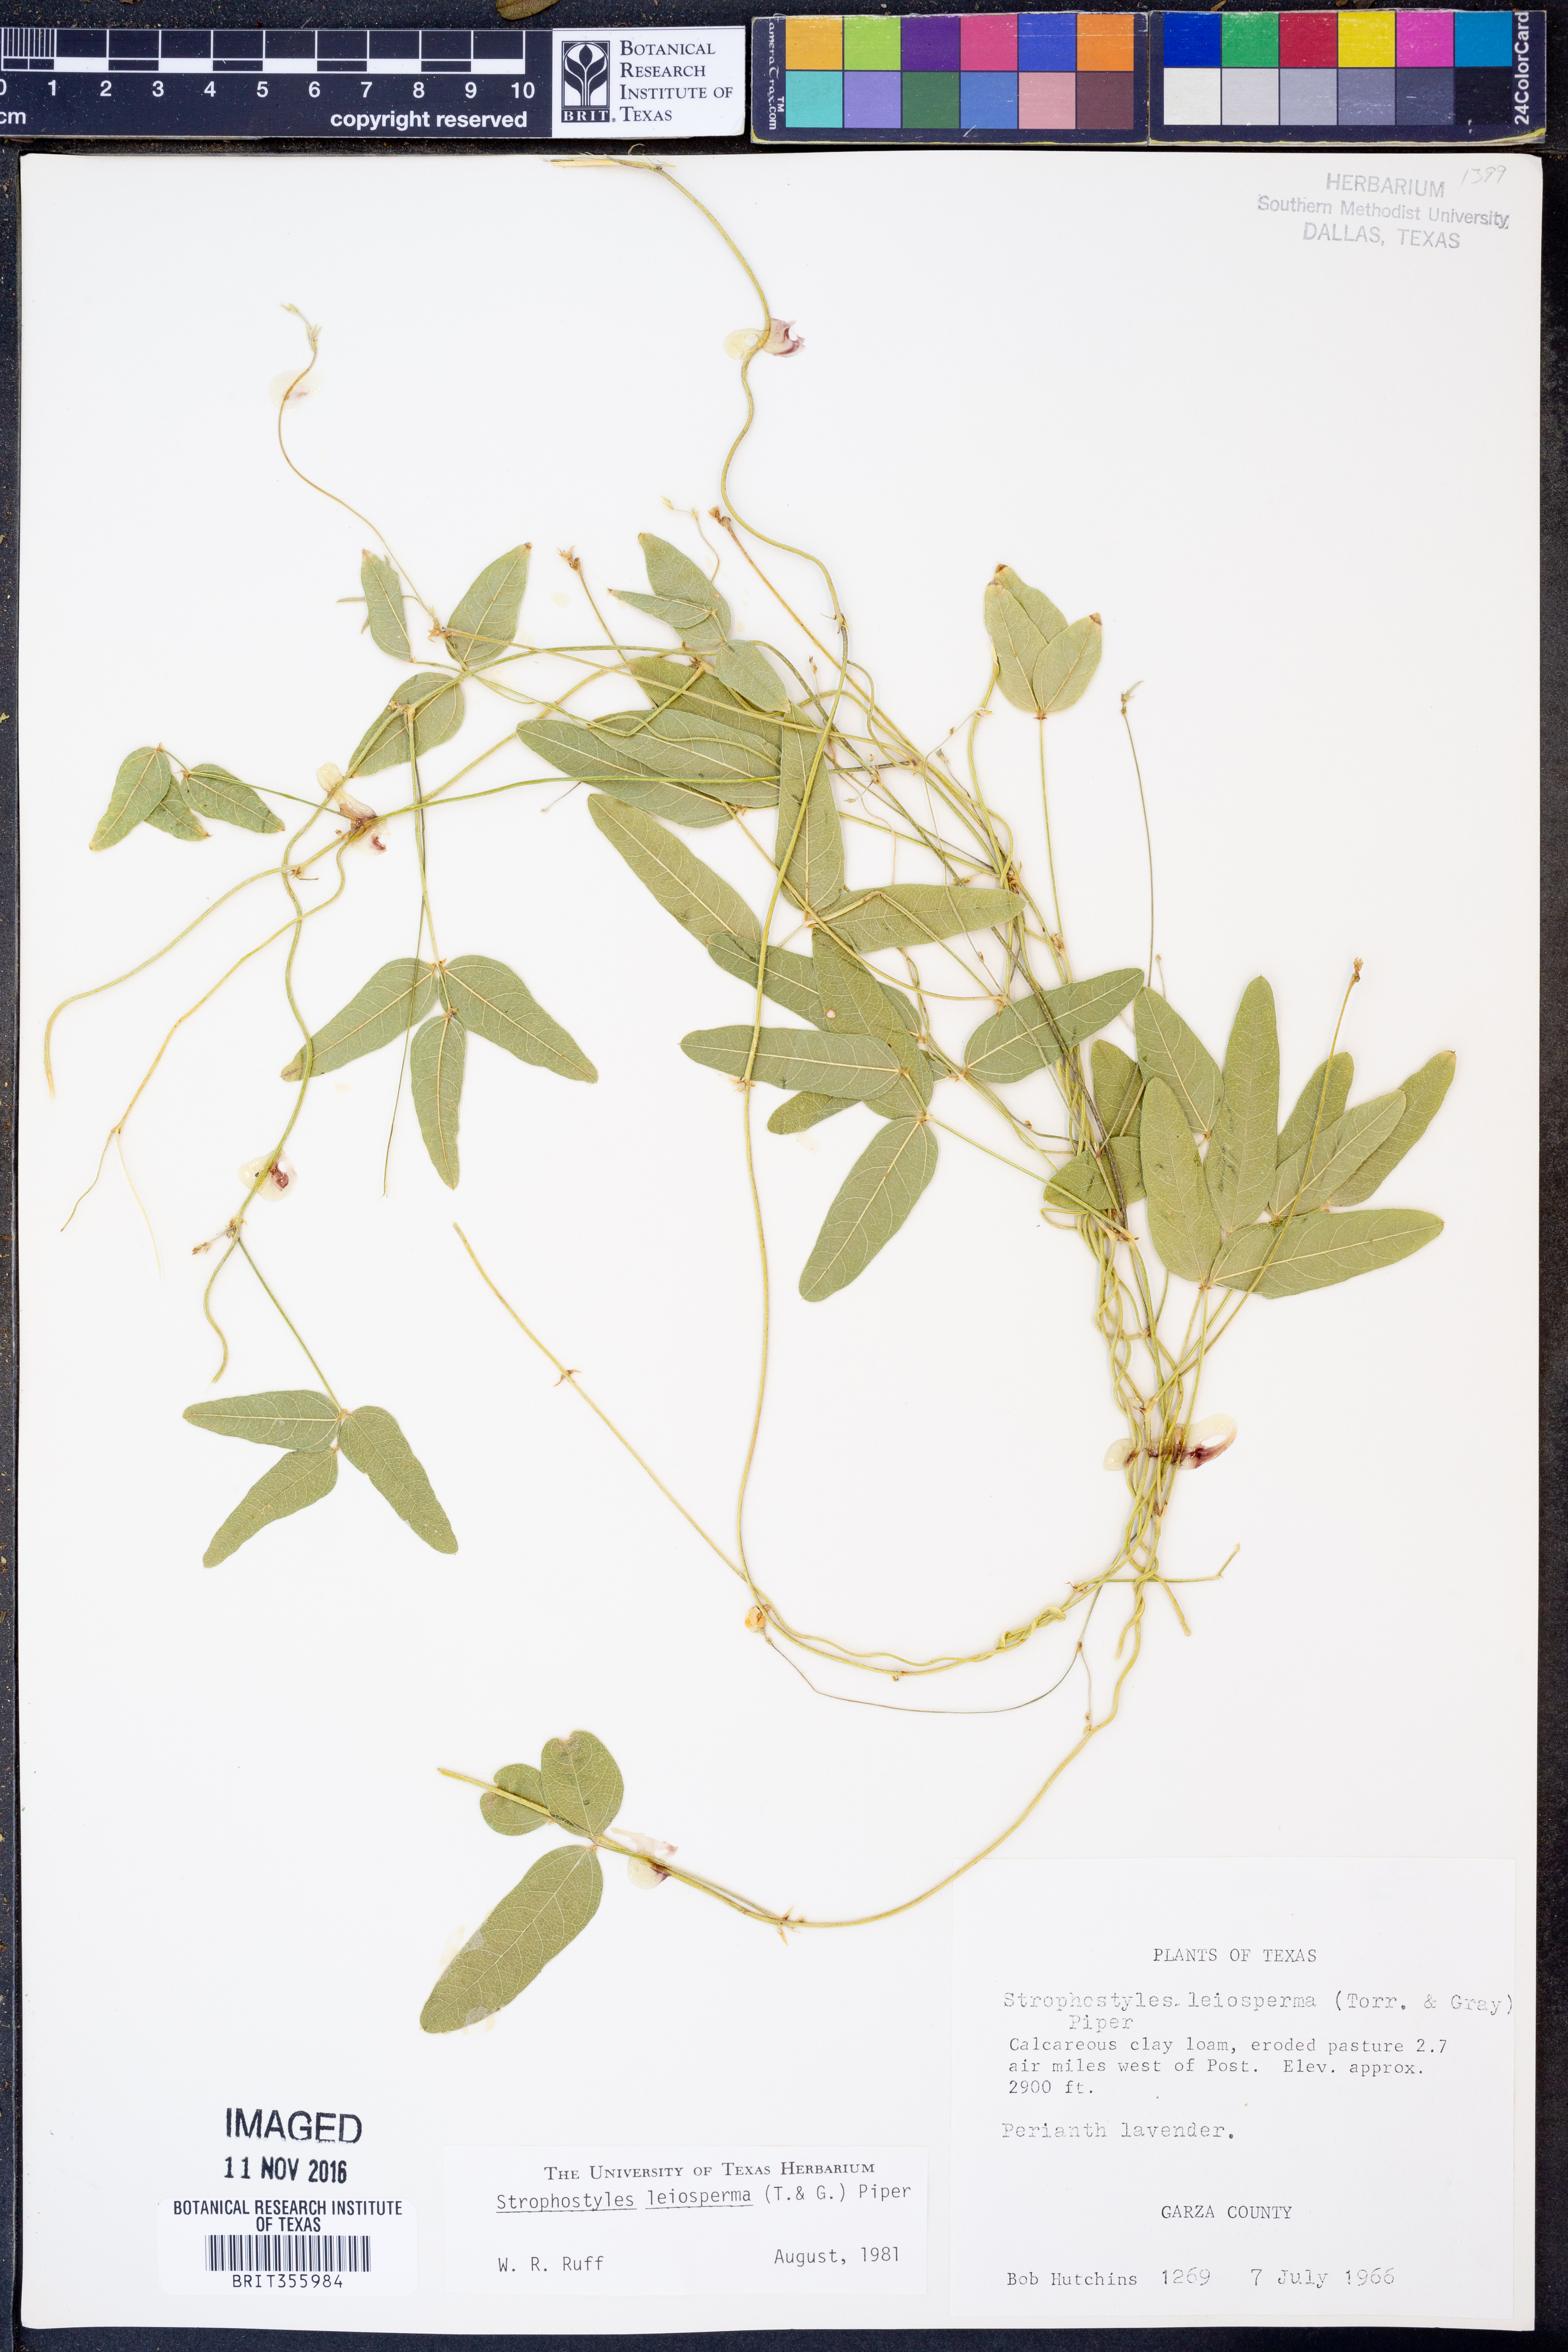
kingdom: Plantae
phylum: Tracheophyta
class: Magnoliopsida
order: Fabales
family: Fabaceae
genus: Strophostyles
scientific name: Strophostyles leiosperma
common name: Smooth-seed wild bean
